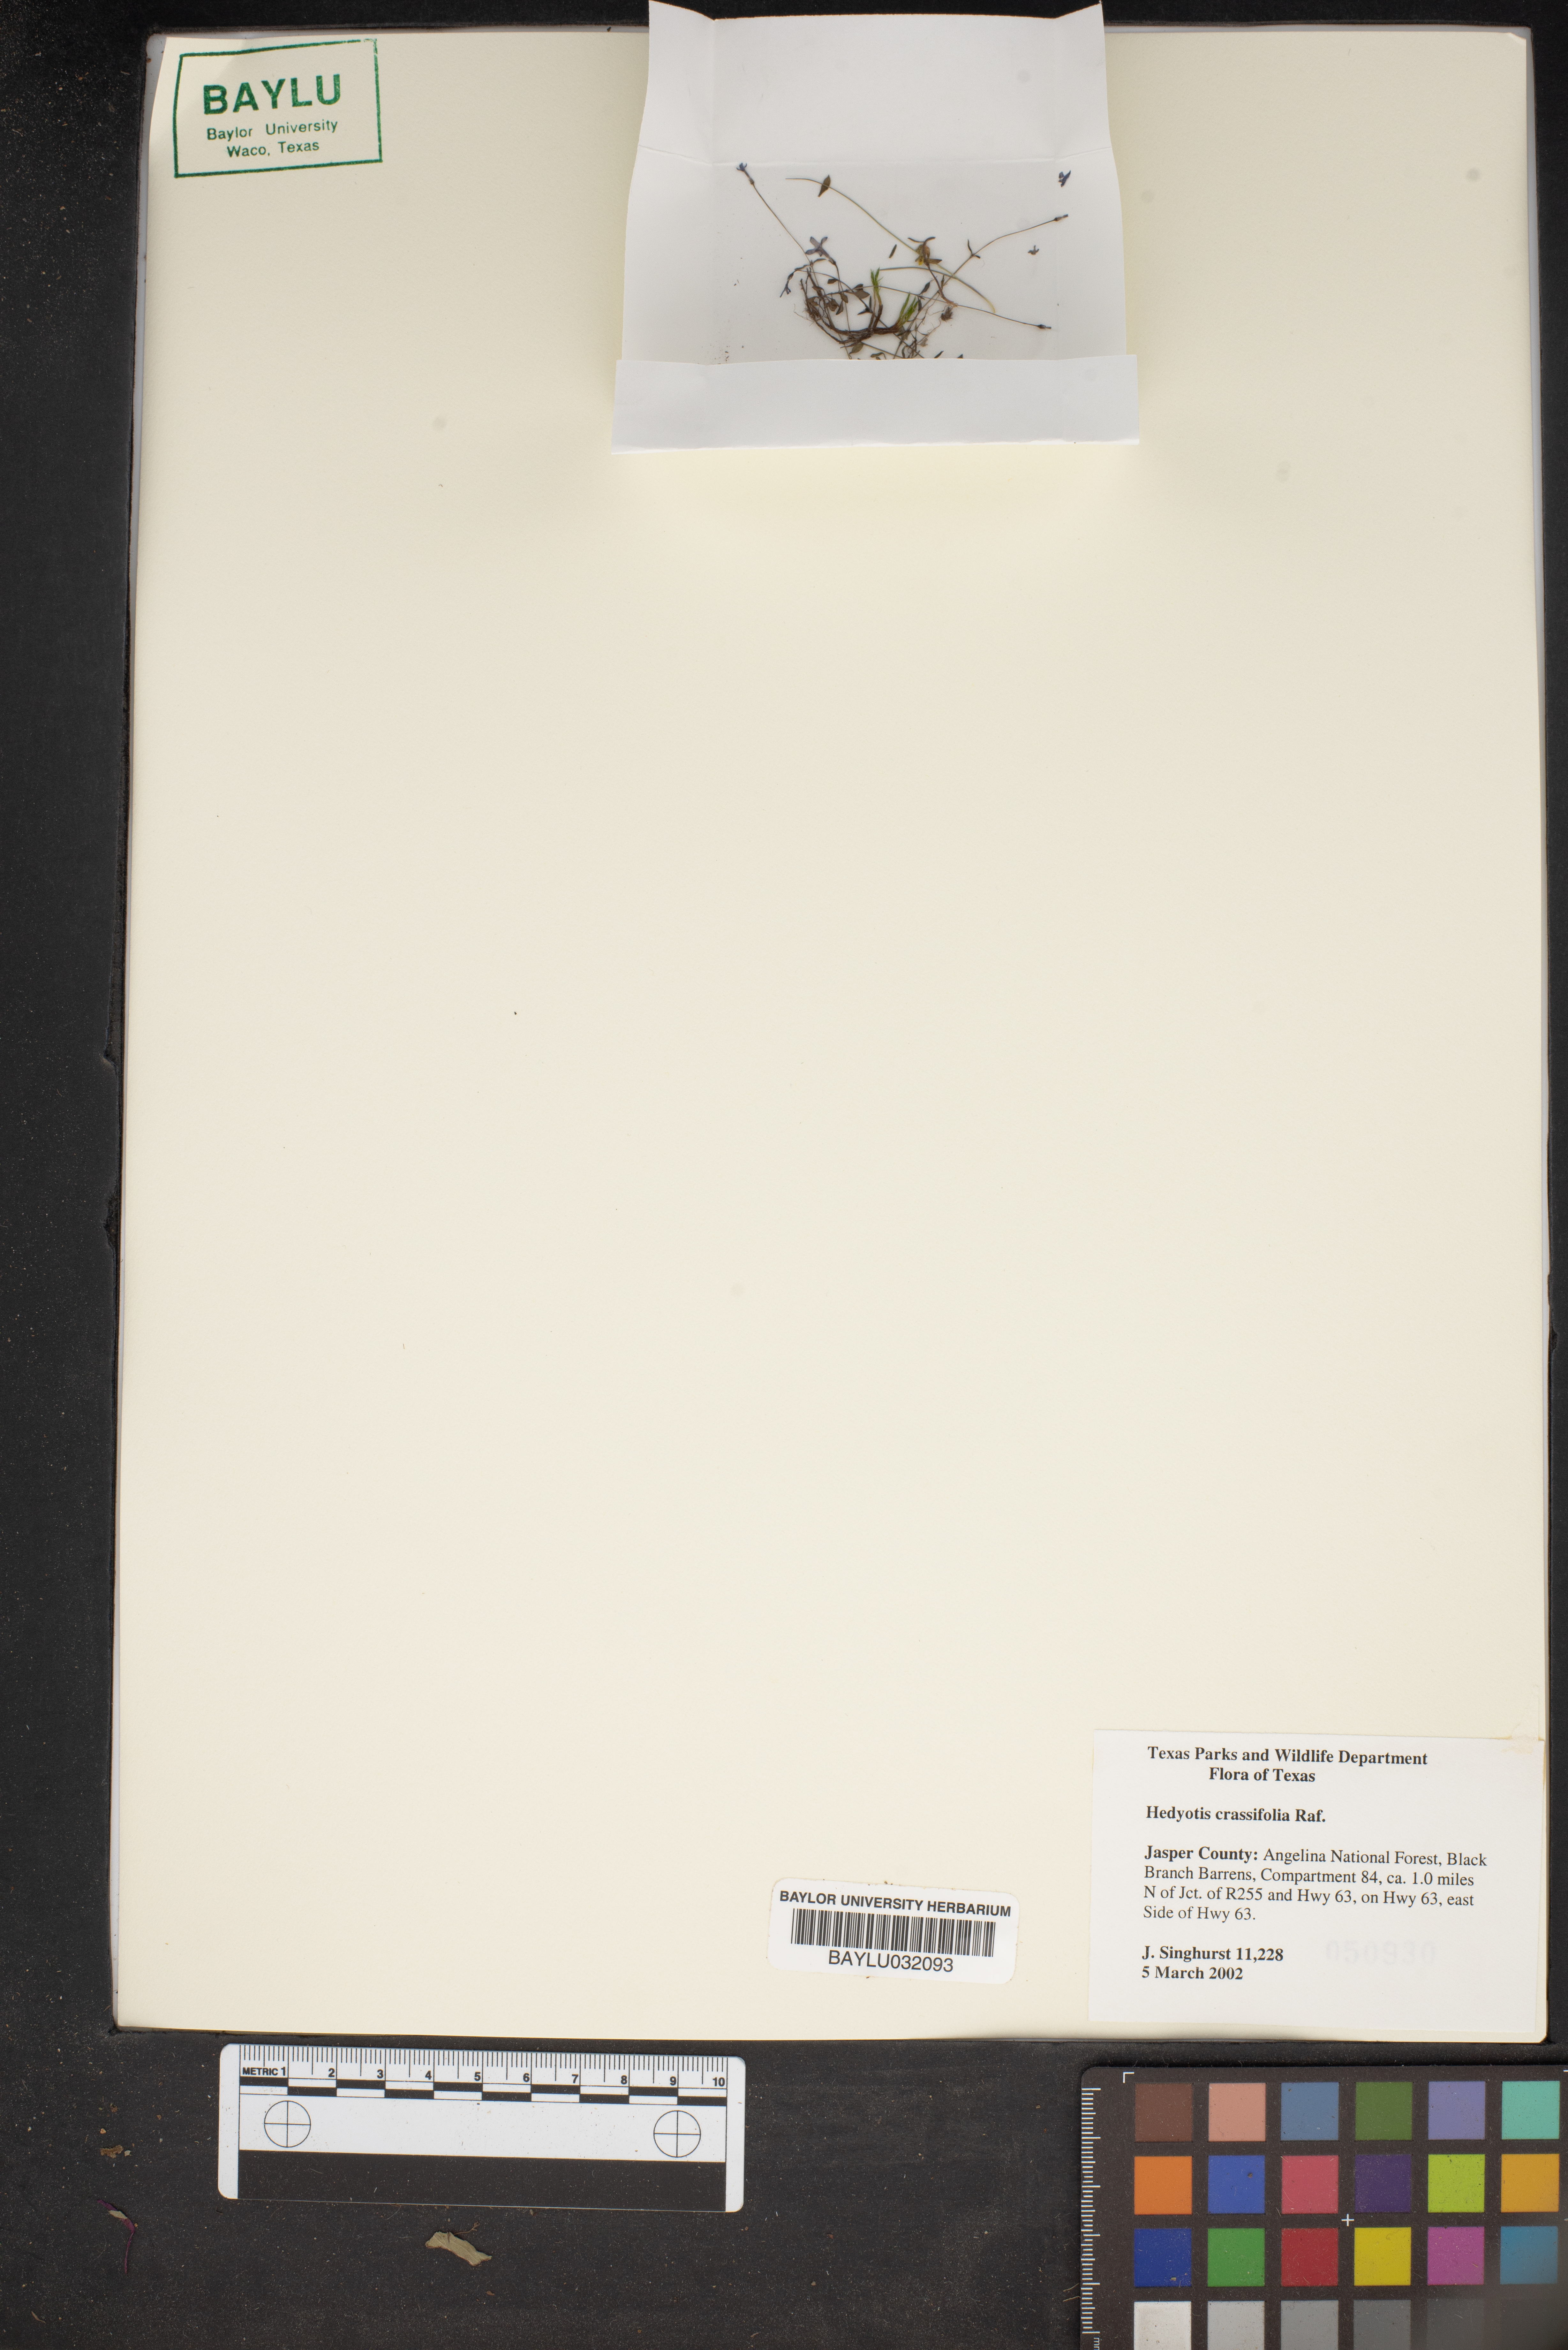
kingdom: Plantae
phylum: Tracheophyta
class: Magnoliopsida
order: Gentianales
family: Rubiaceae
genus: Houstonia
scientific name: Houstonia pusilla
